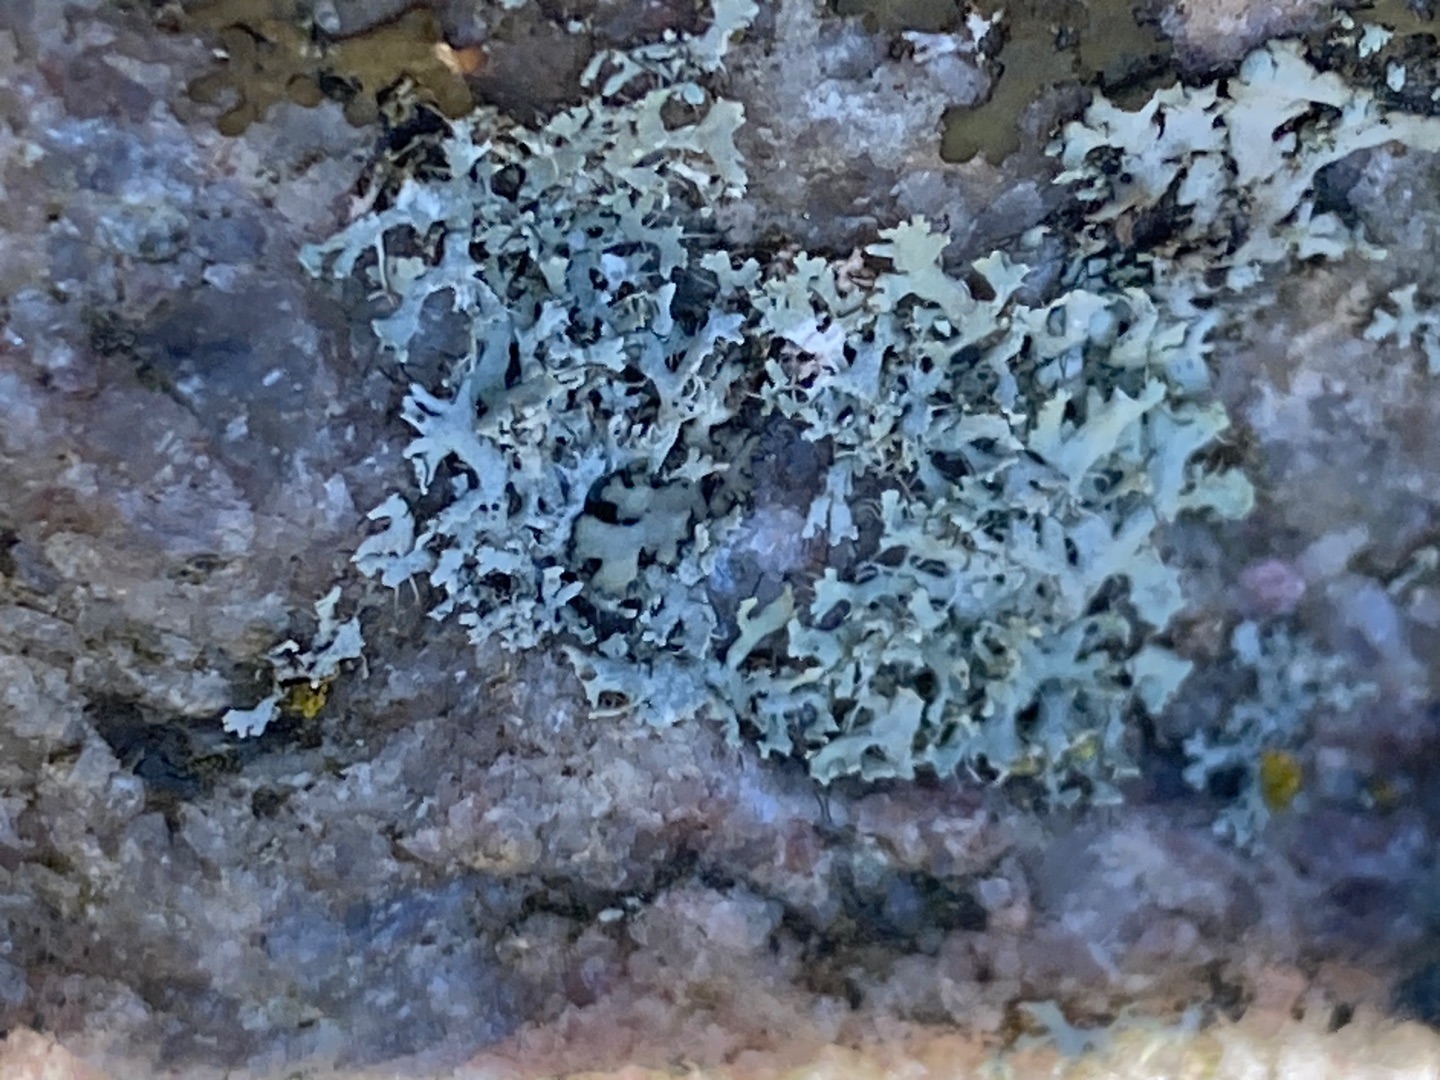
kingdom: Fungi
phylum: Ascomycota
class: Lecanoromycetes
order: Caliciales
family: Physciaceae
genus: Physcia
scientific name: Physcia tenella
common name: Spæd rosetlav
